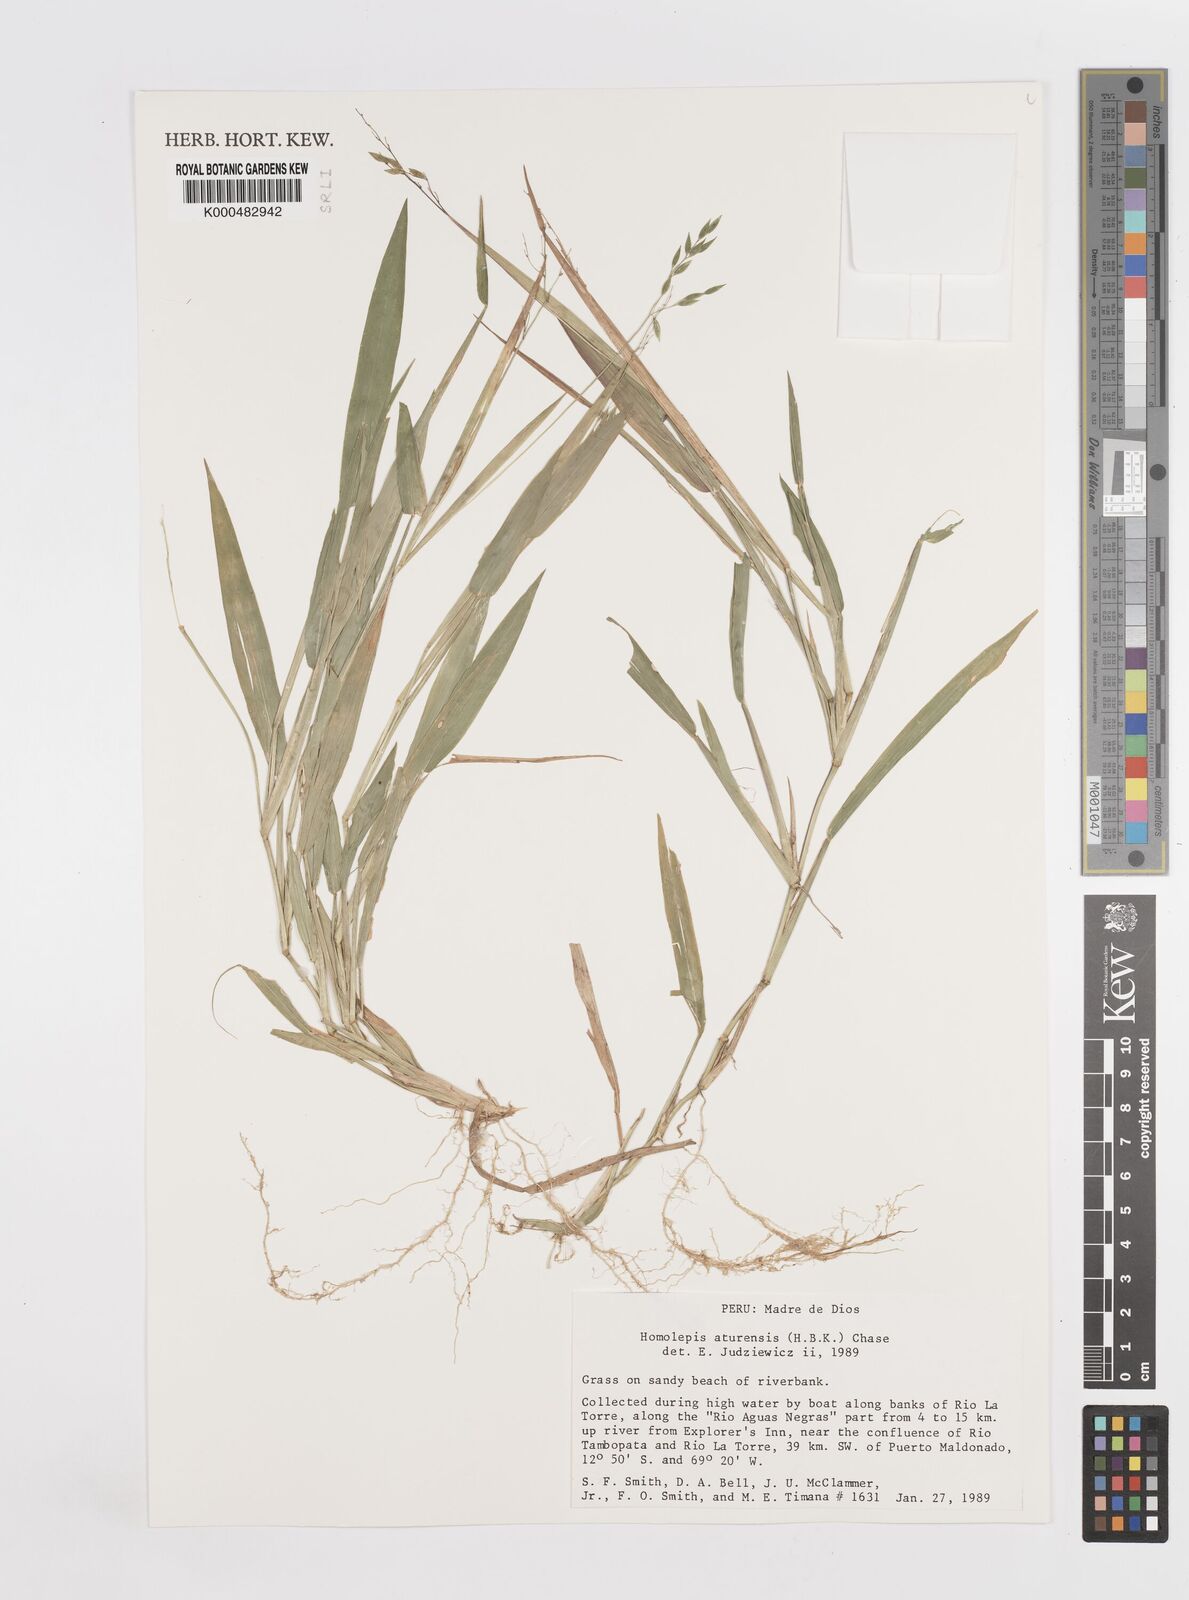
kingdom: Plantae
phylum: Tracheophyta
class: Liliopsida
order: Poales
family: Poaceae
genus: Homolepis
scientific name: Homolepis aturensis
